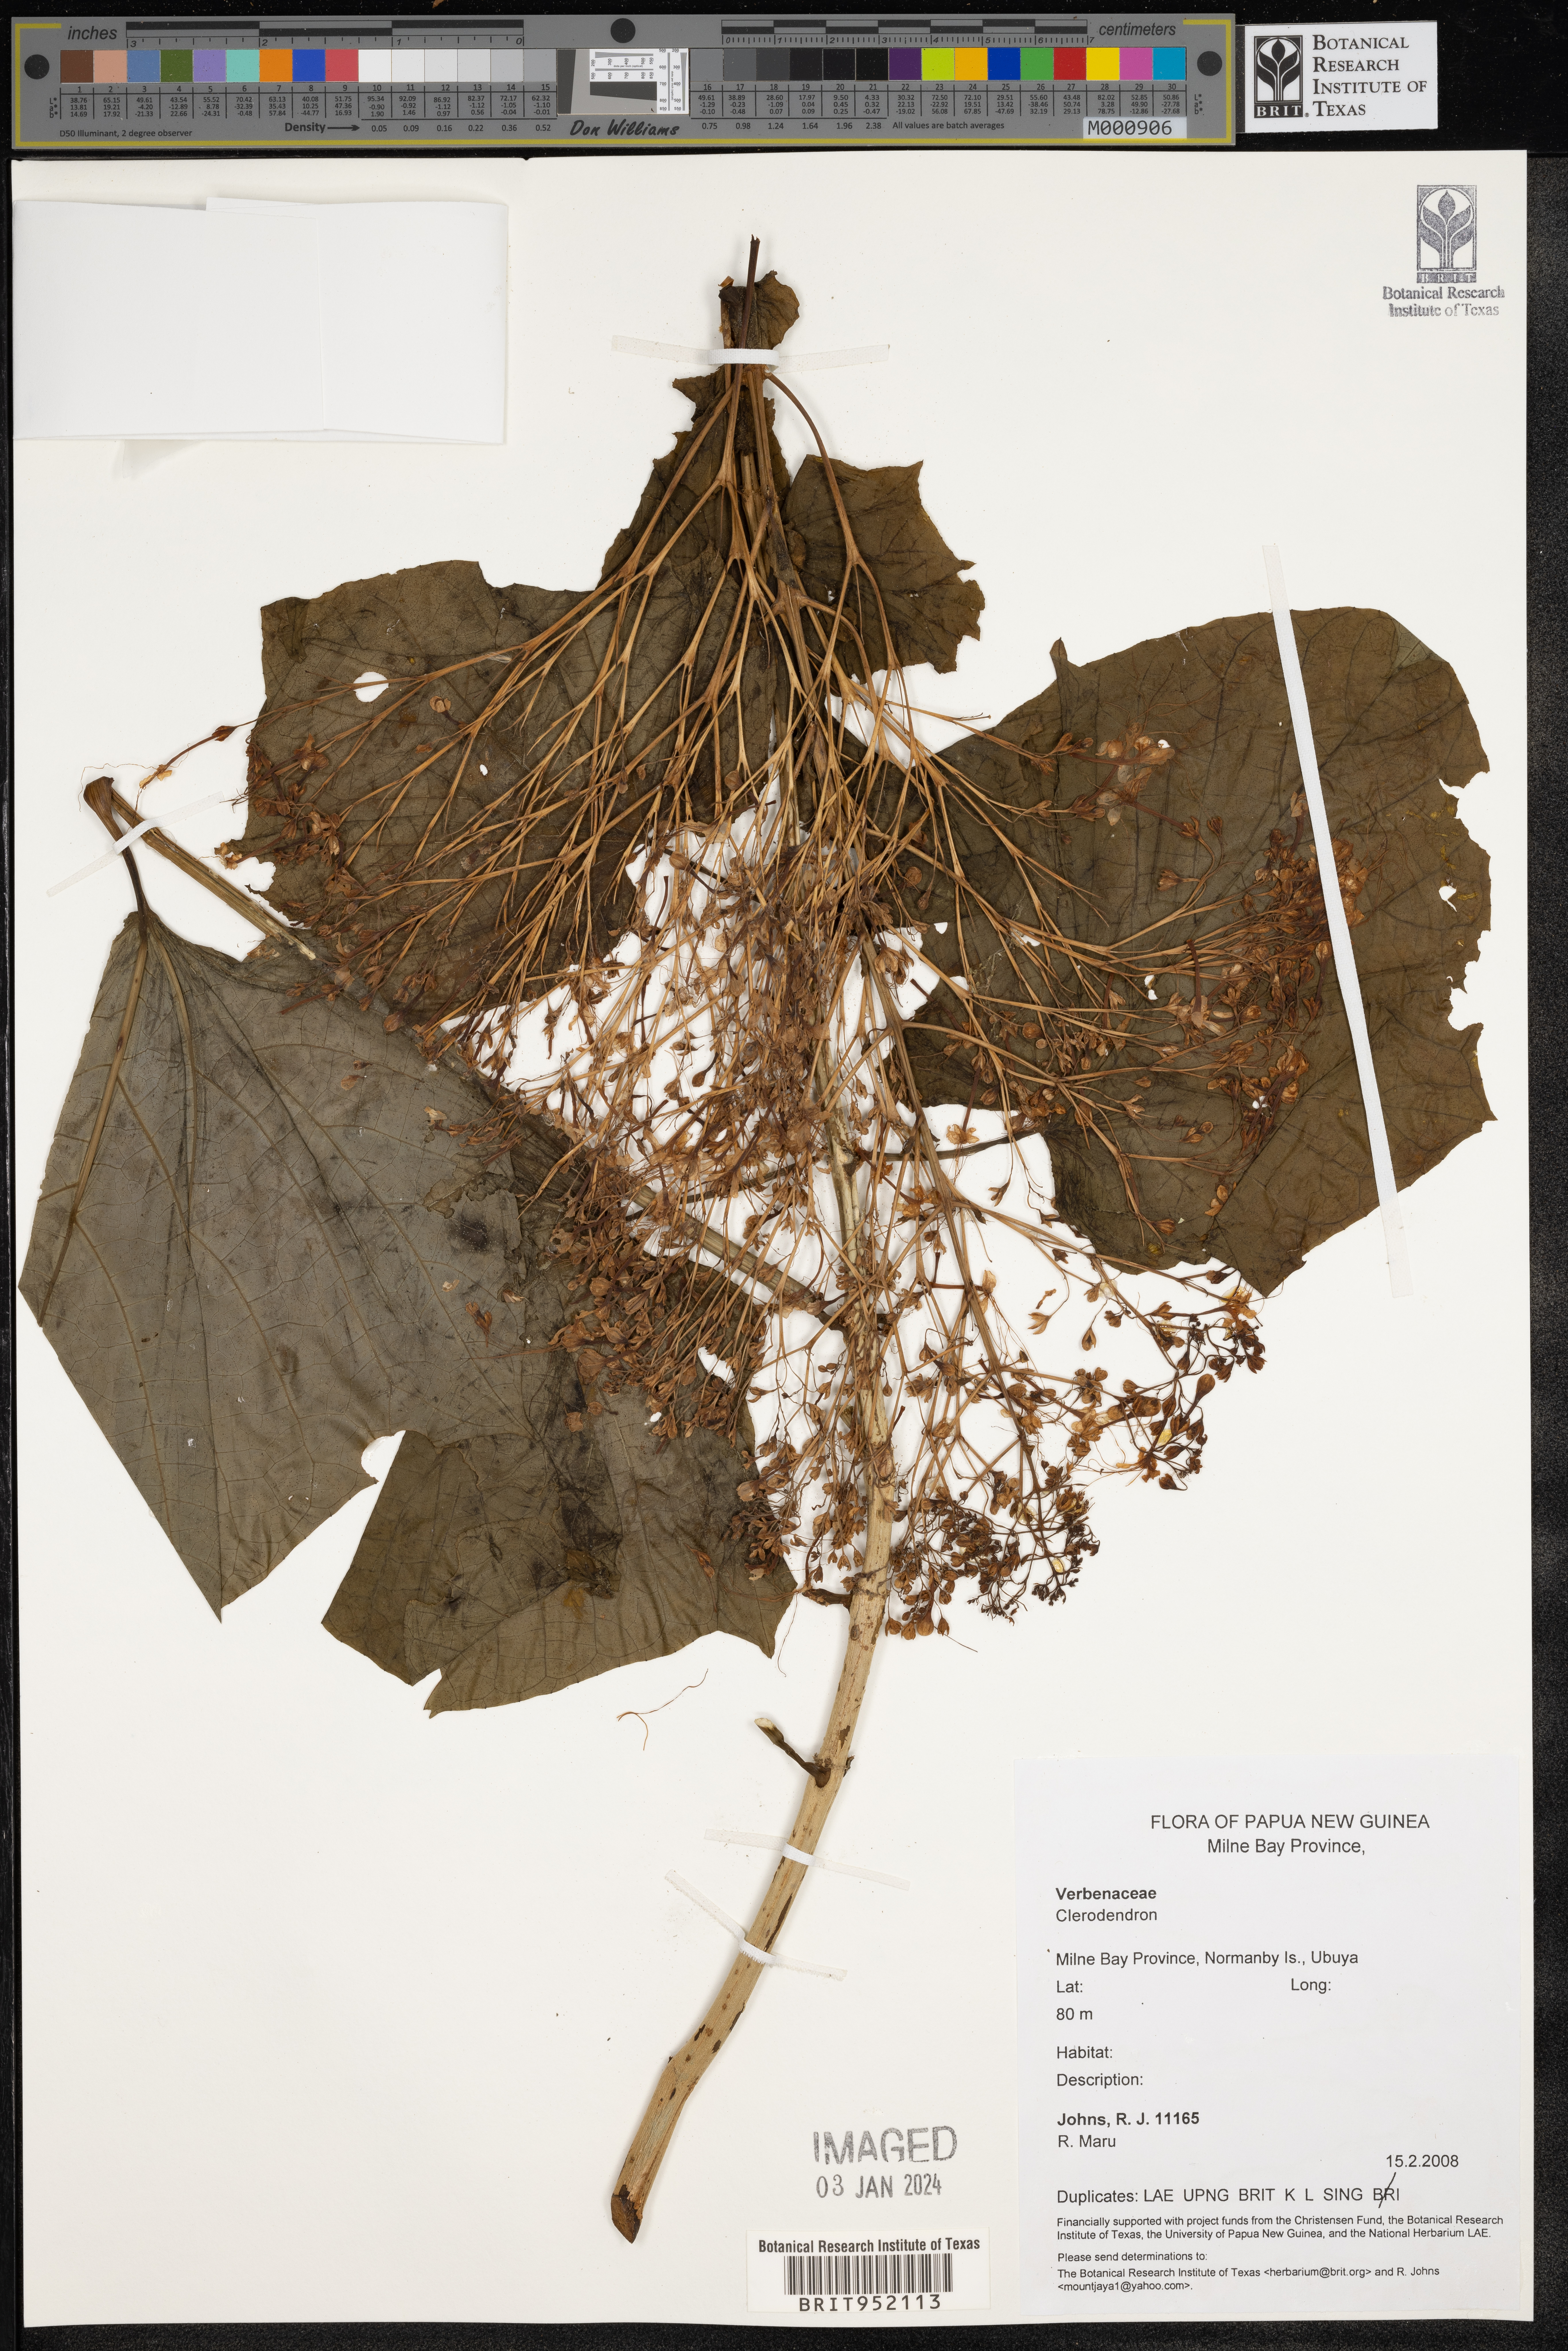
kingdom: Plantae
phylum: Tracheophyta
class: Magnoliopsida
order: Lamiales
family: Lamiaceae
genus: Clerodendrum
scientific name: Clerodendrum
